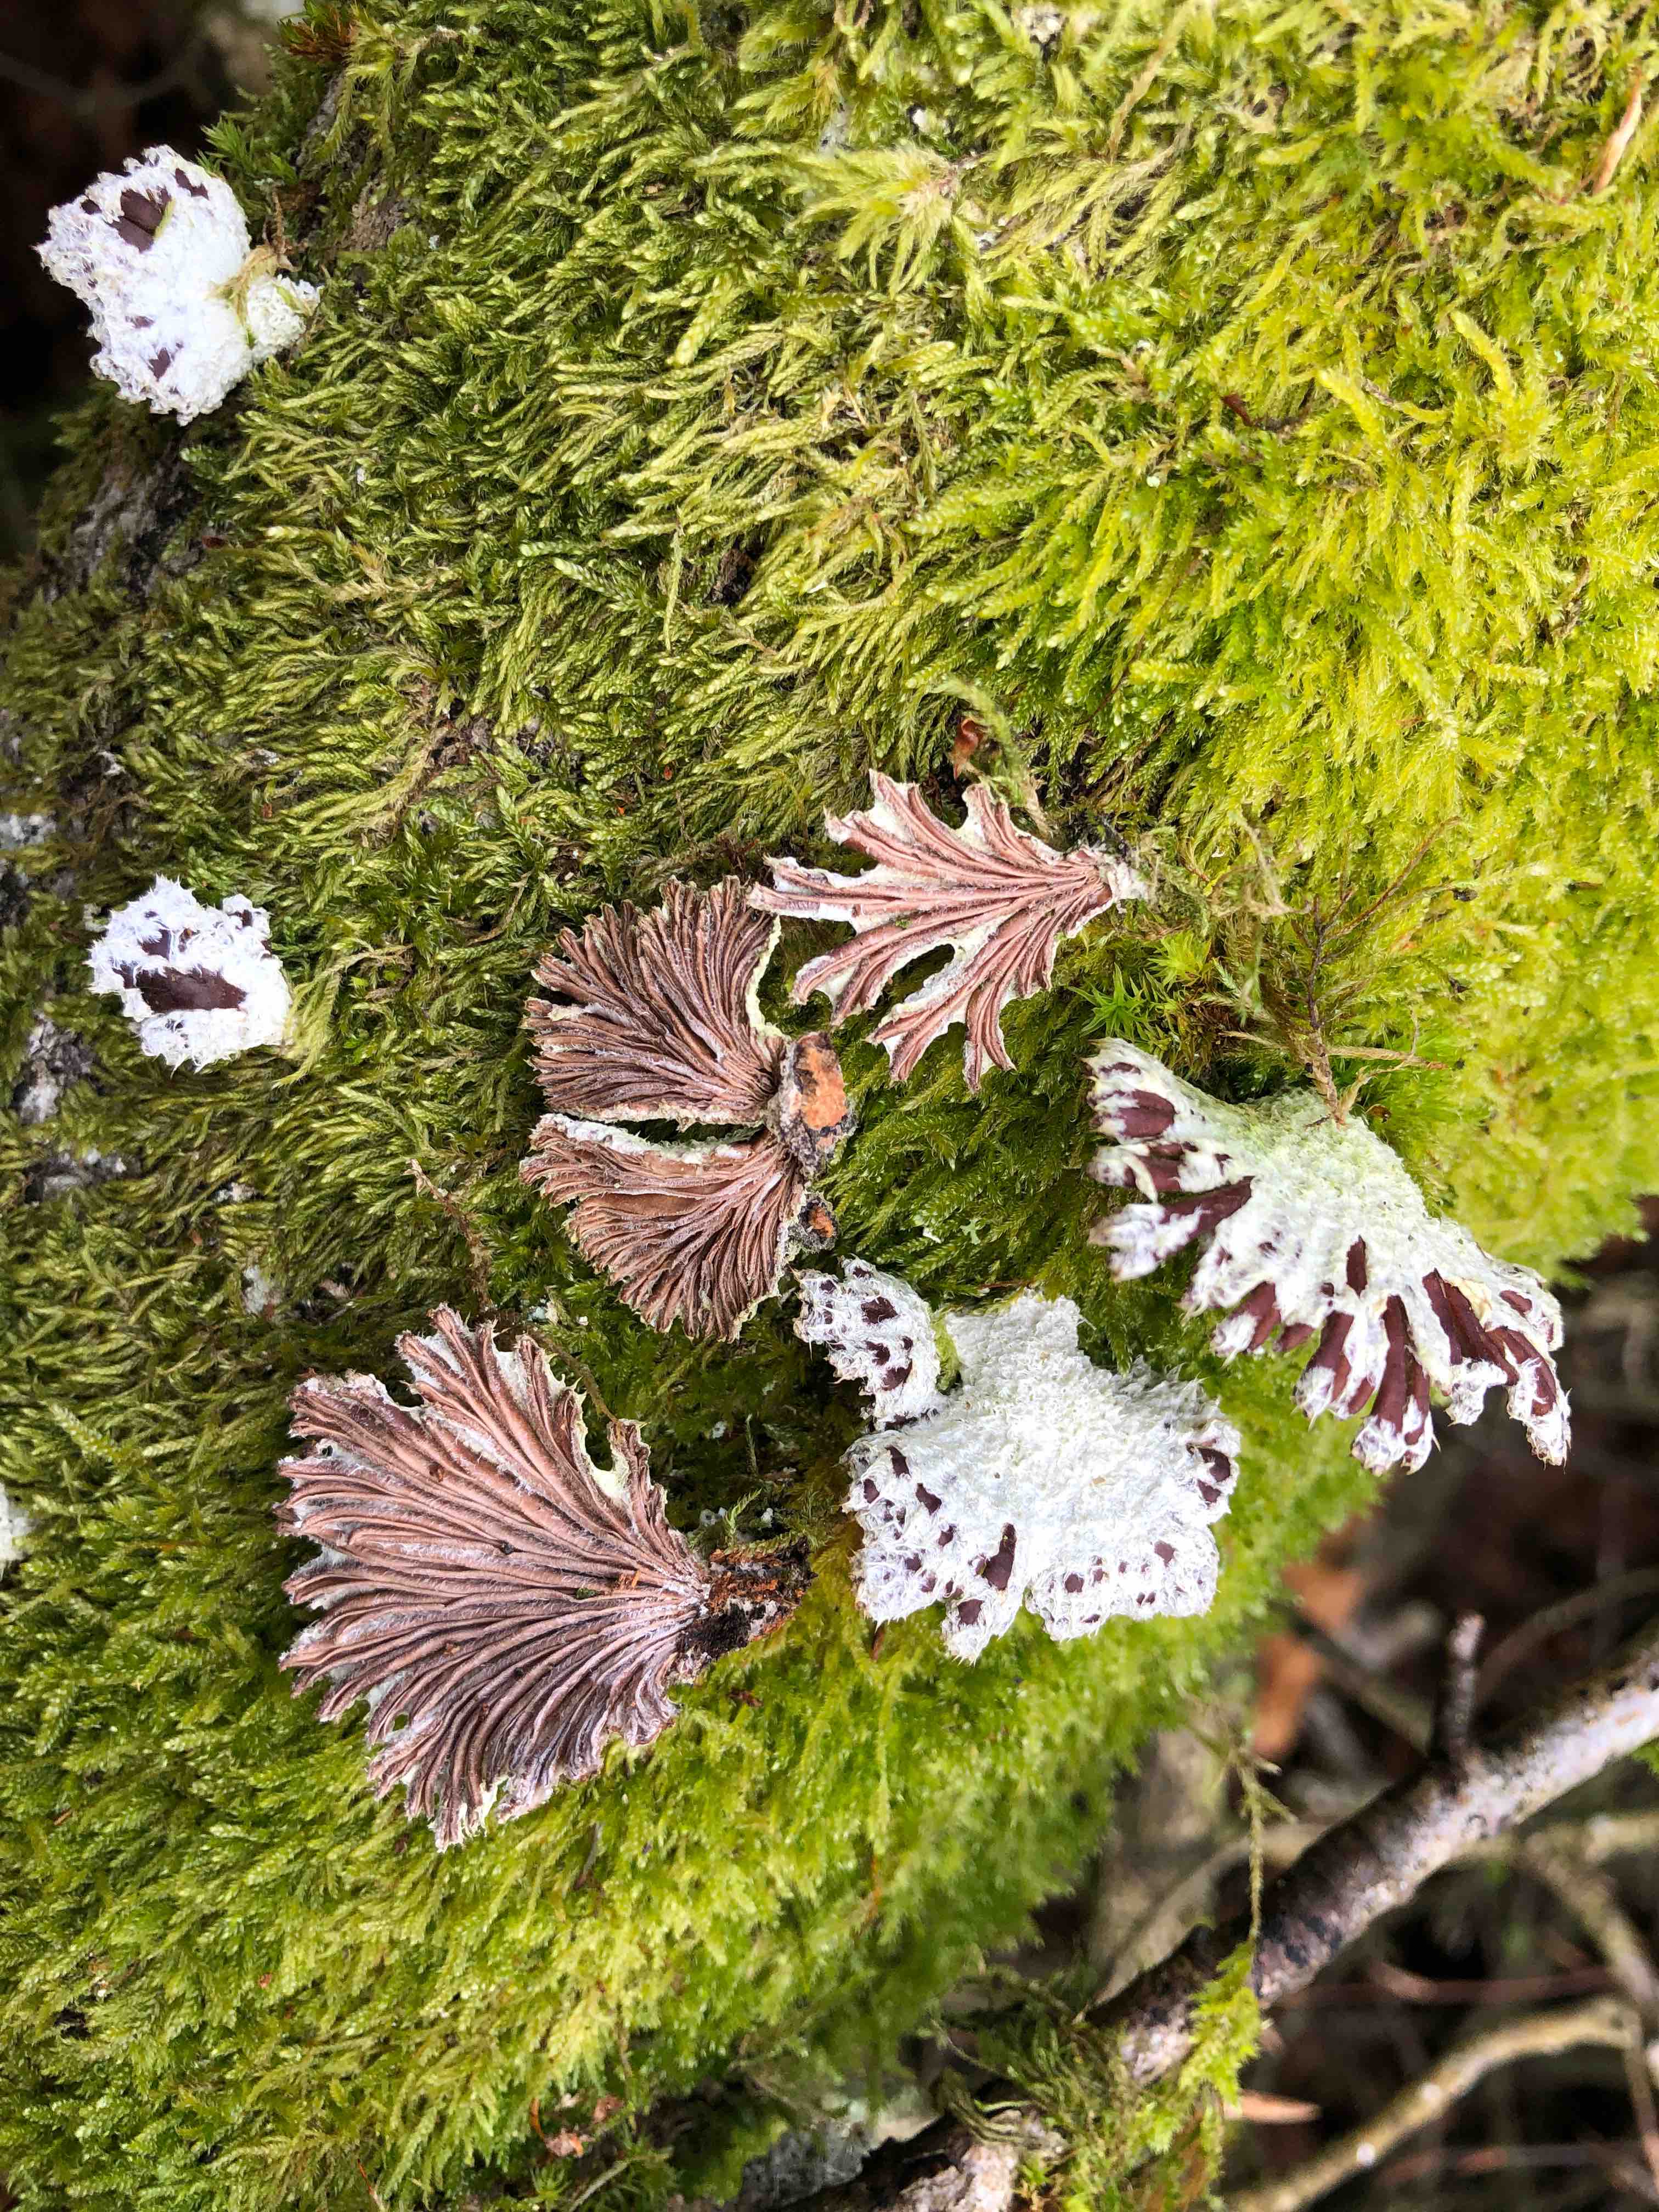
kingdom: Fungi
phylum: Basidiomycota
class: Agaricomycetes
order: Agaricales
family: Schizophyllaceae
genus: Schizophyllum
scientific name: Schizophyllum commune
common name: kløvblad
